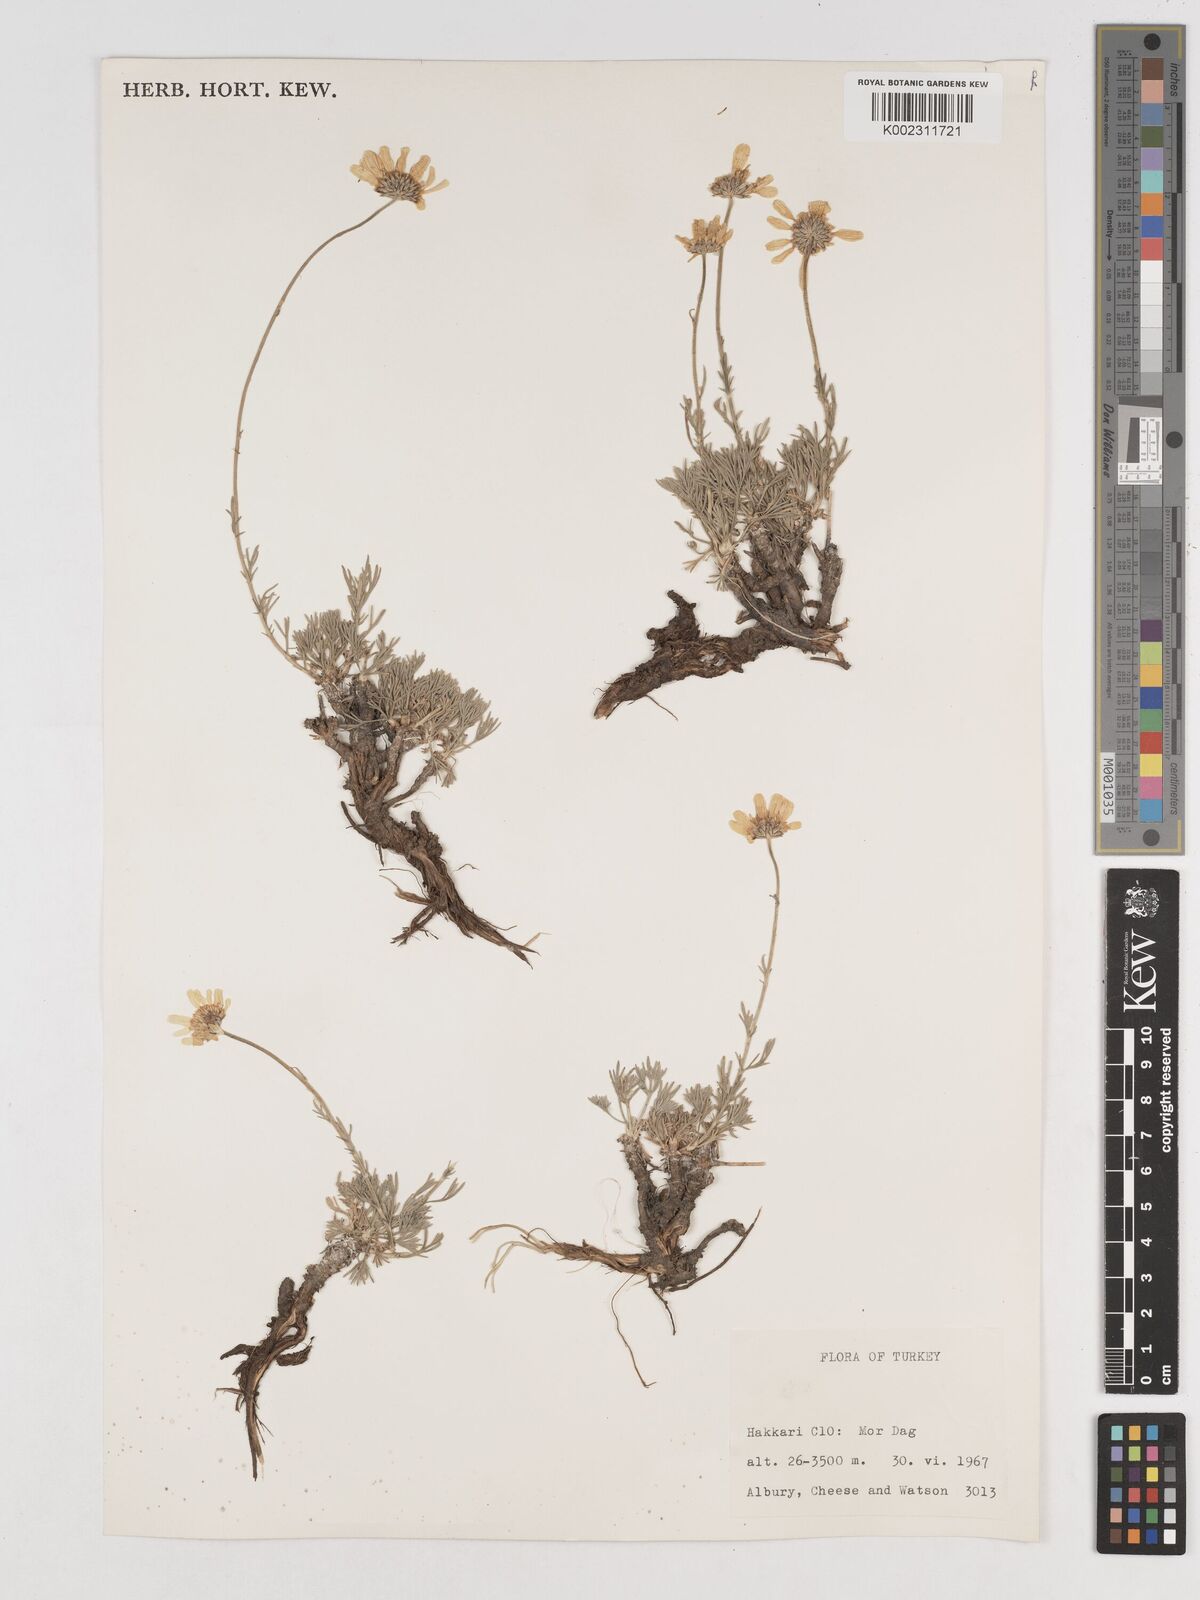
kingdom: Plantae
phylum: Tracheophyta
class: Magnoliopsida
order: Asterales
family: Asteraceae
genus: Tanacetum
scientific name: Tanacetum kotschyi
